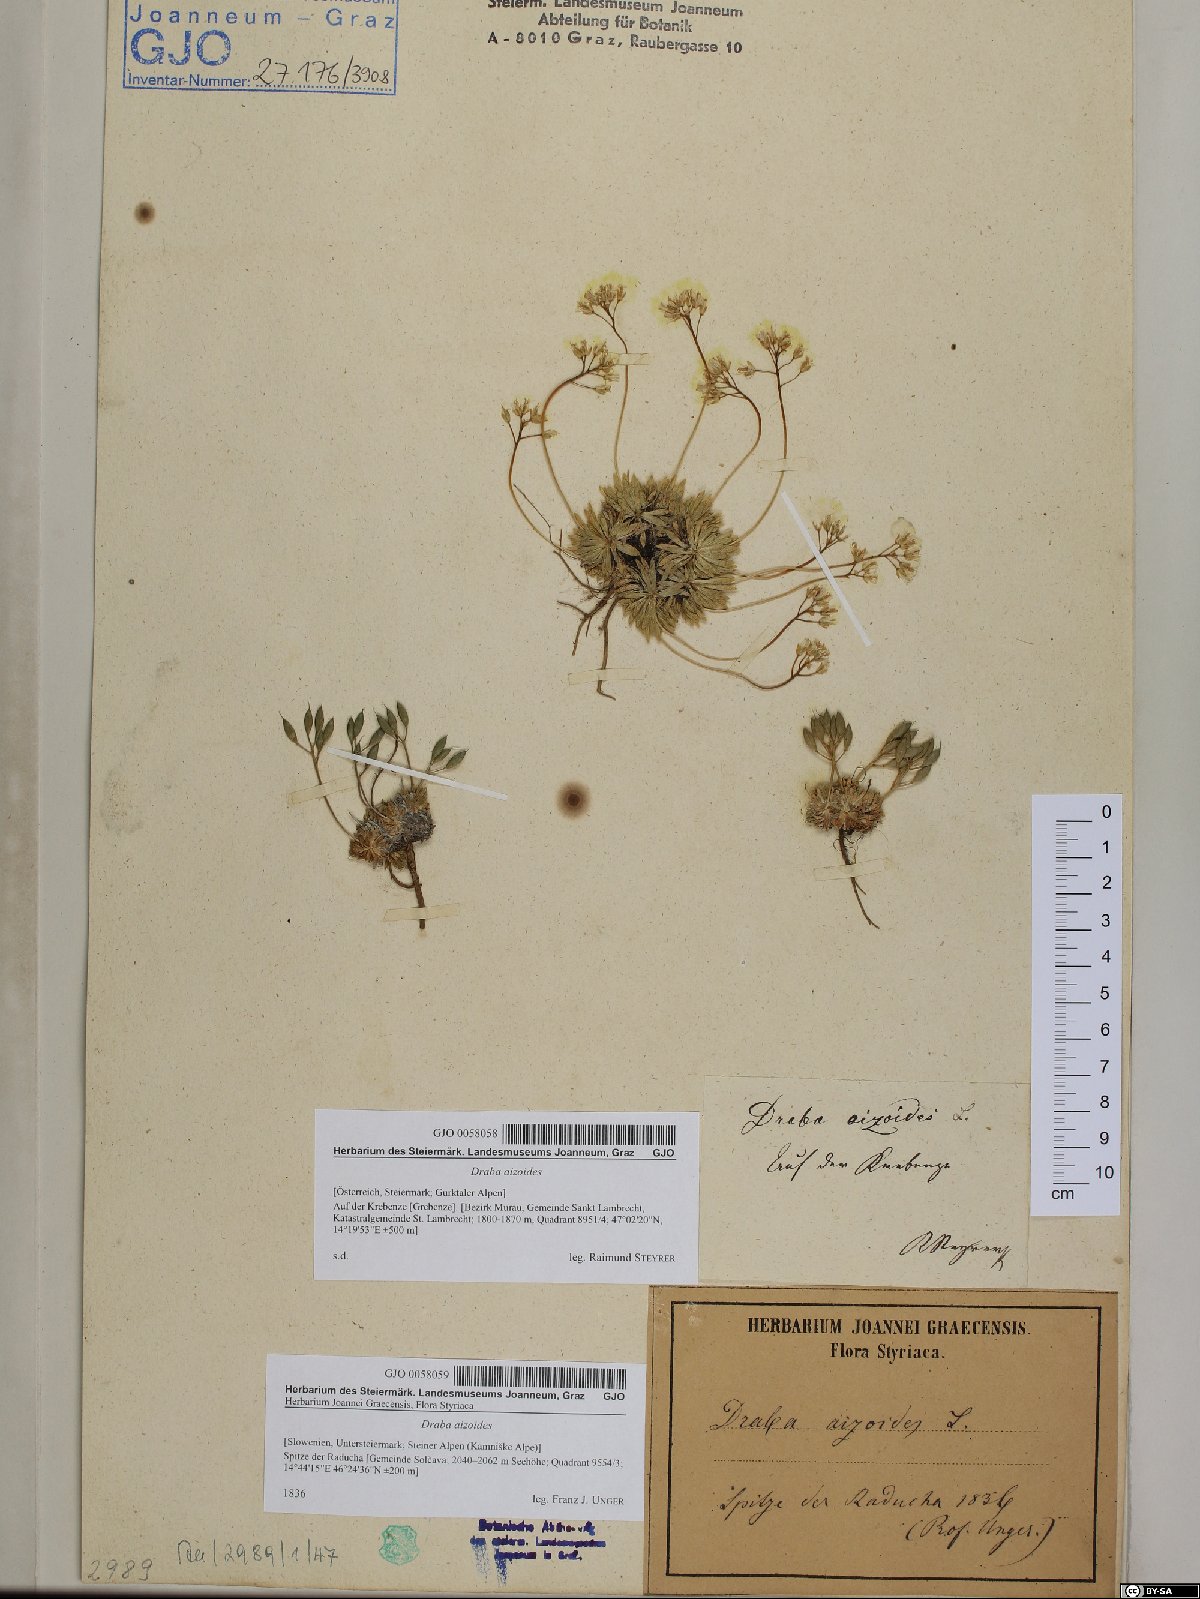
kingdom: Plantae
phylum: Tracheophyta
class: Magnoliopsida
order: Brassicales
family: Brassicaceae
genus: Draba
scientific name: Draba aizoides
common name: Yellow whitlowgrass
